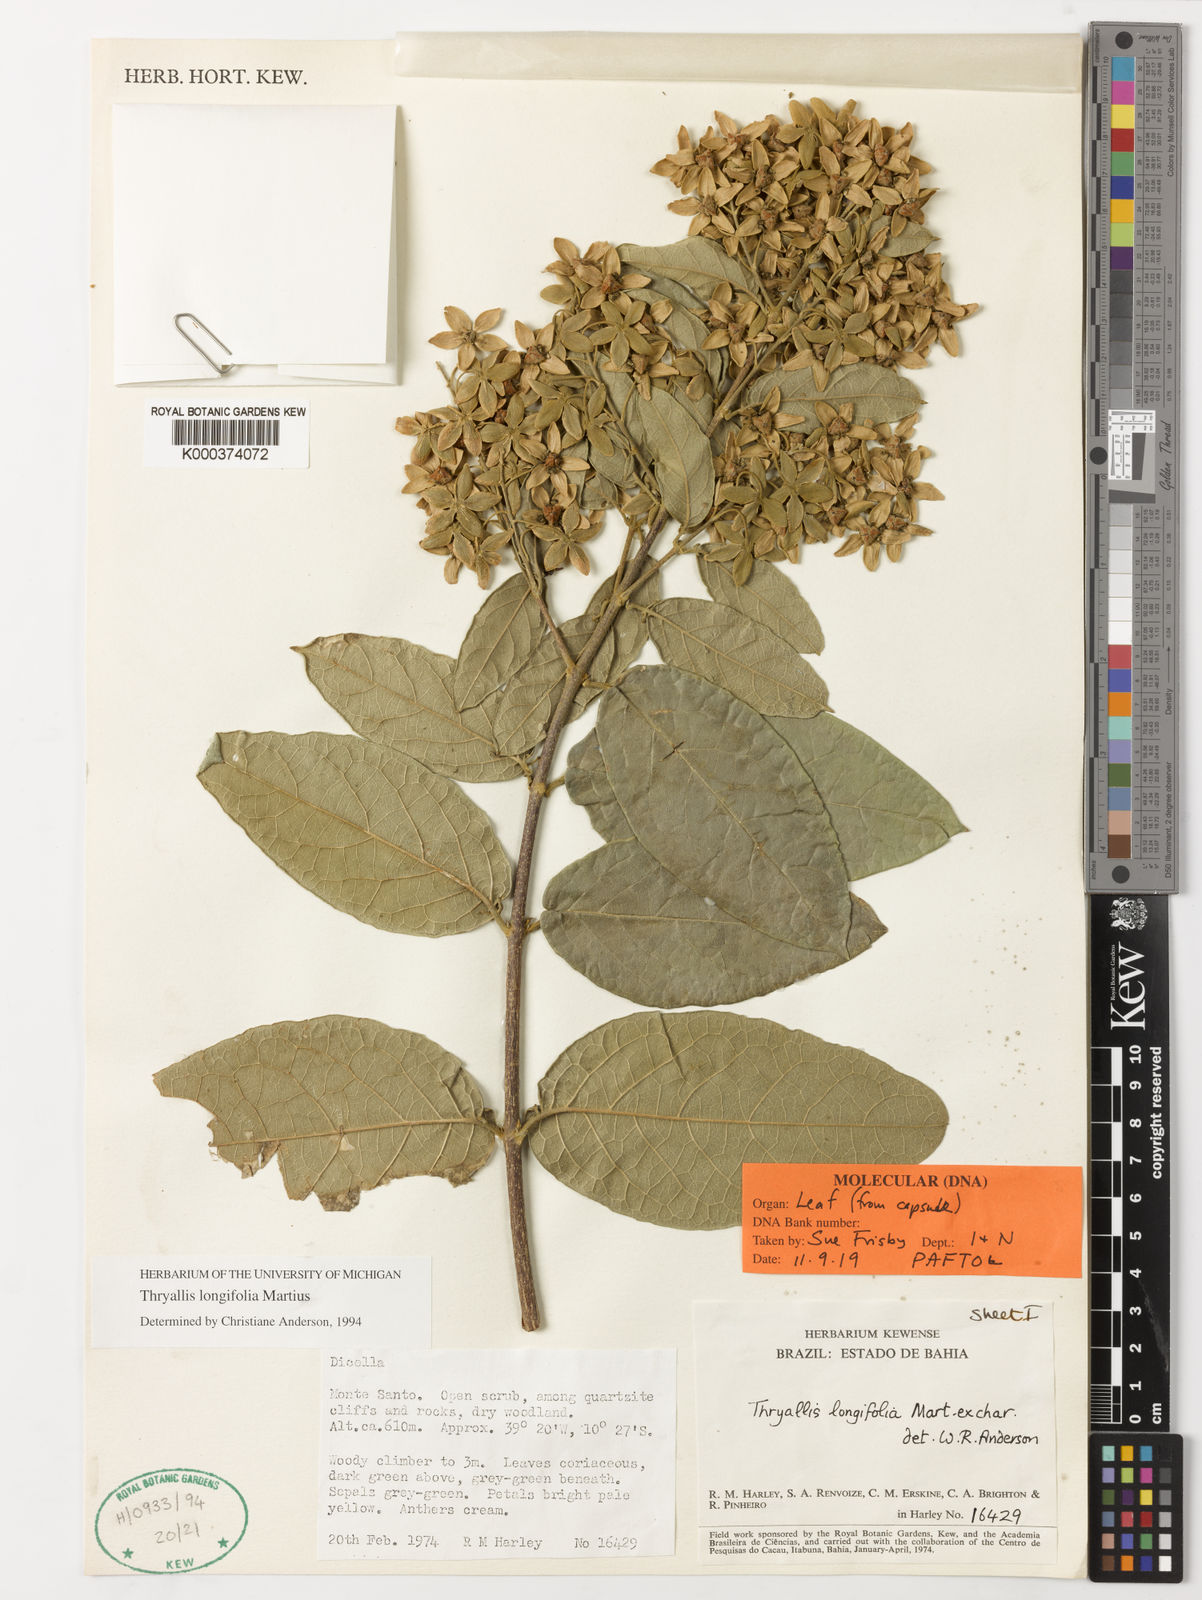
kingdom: Plantae
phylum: Tracheophyta
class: Magnoliopsida
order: Malpighiales
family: Malpighiaceae
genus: Thryallis
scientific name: Thryallis longifolia
